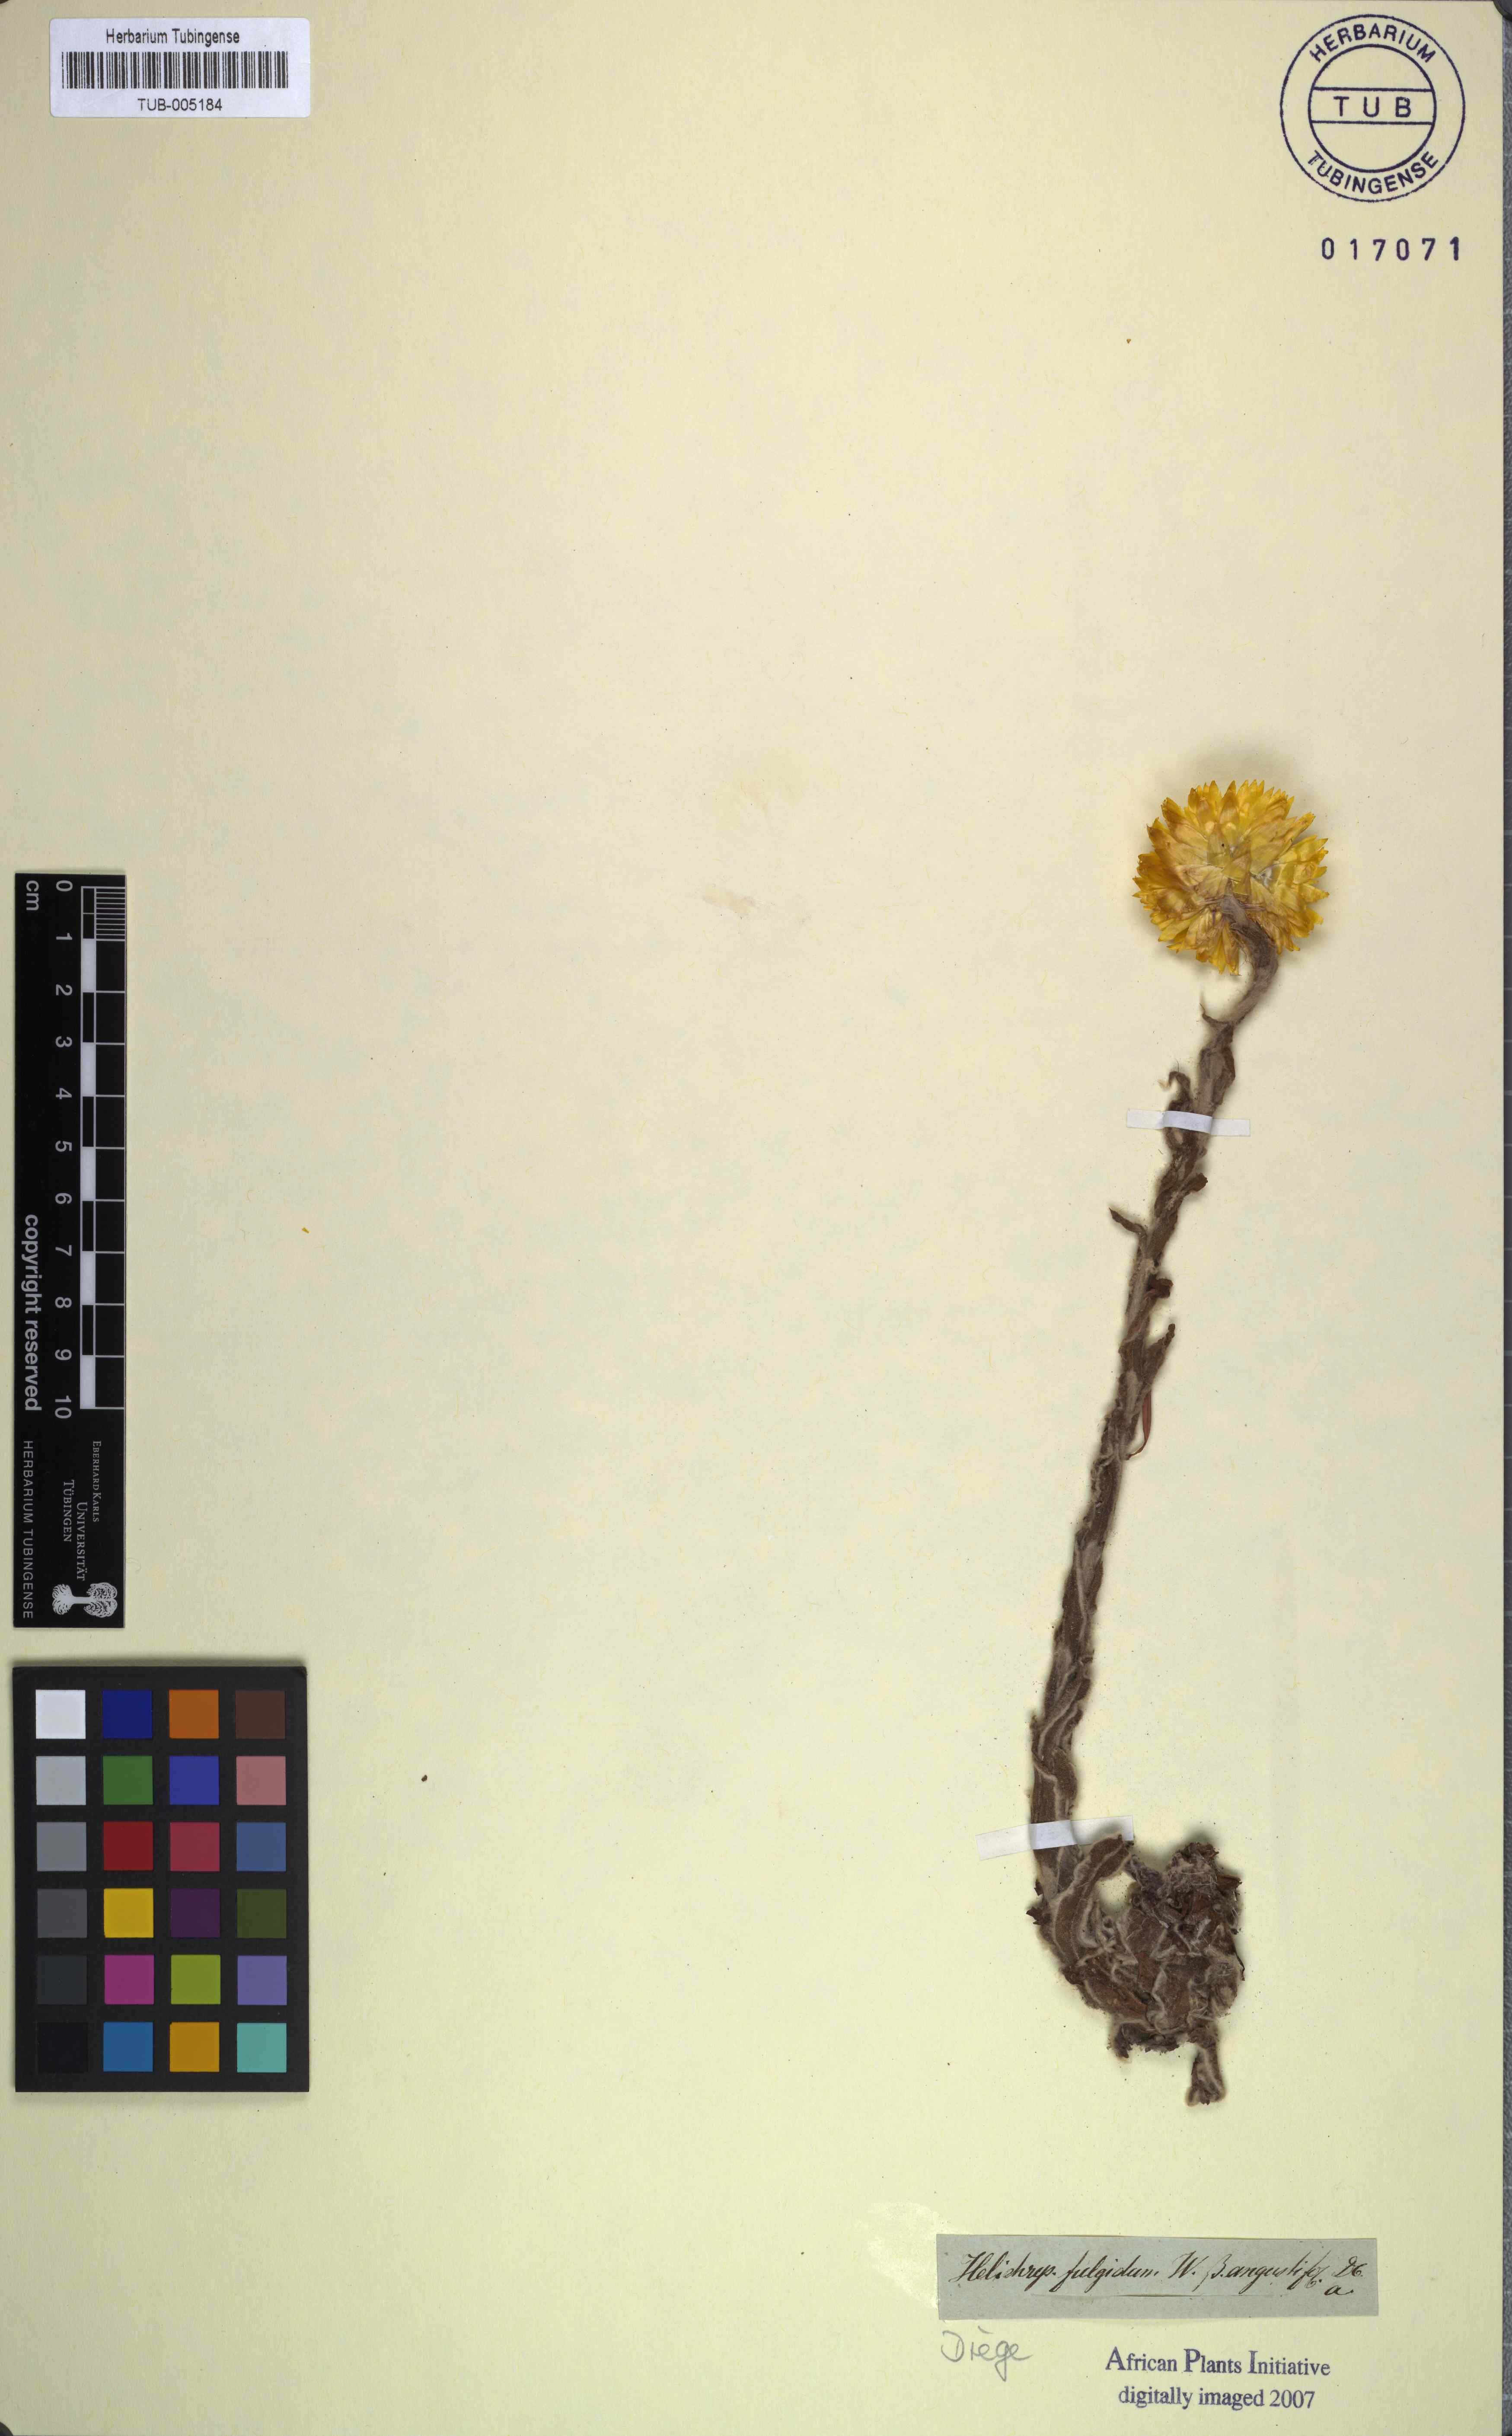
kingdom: Plantae
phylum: Tracheophyta
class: Magnoliopsida
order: Asterales
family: Asteraceae
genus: Helichrysum
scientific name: Helichrysum aureum
